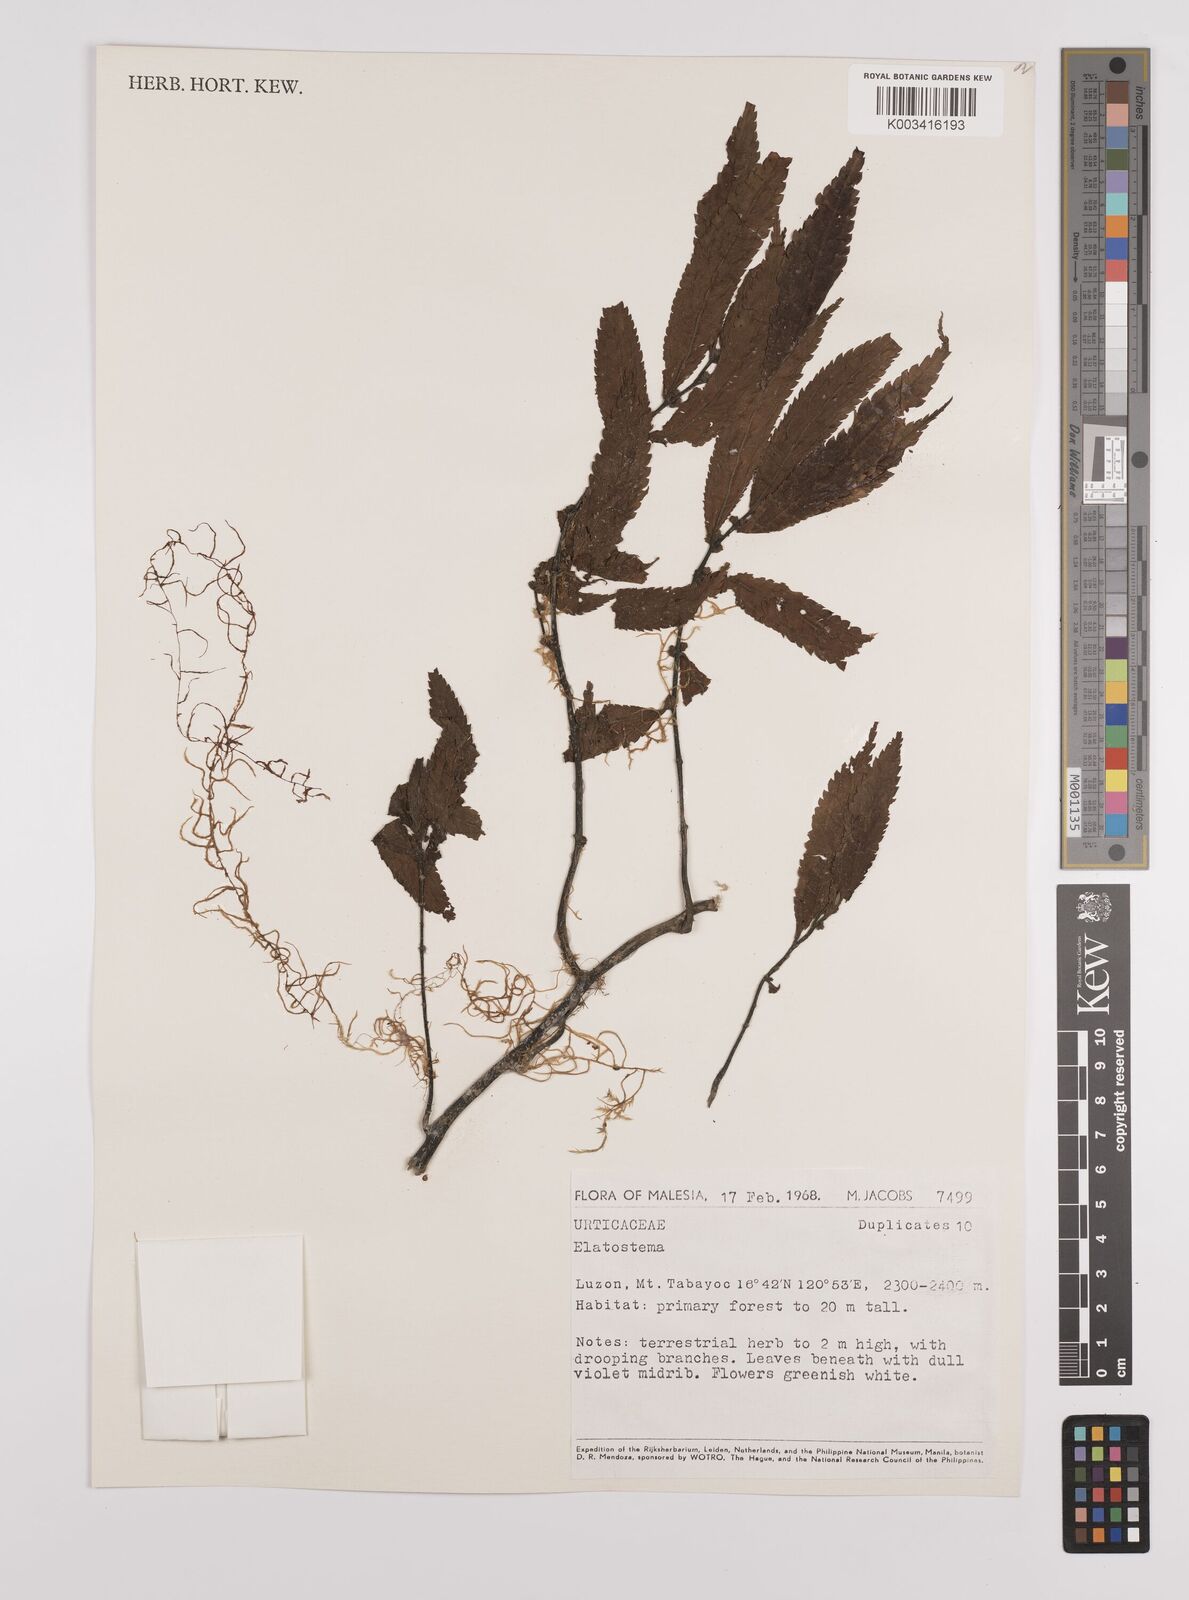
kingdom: Plantae
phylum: Tracheophyta
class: Magnoliopsida
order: Rosales
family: Urticaceae
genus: Elatostema
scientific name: Elatostema
